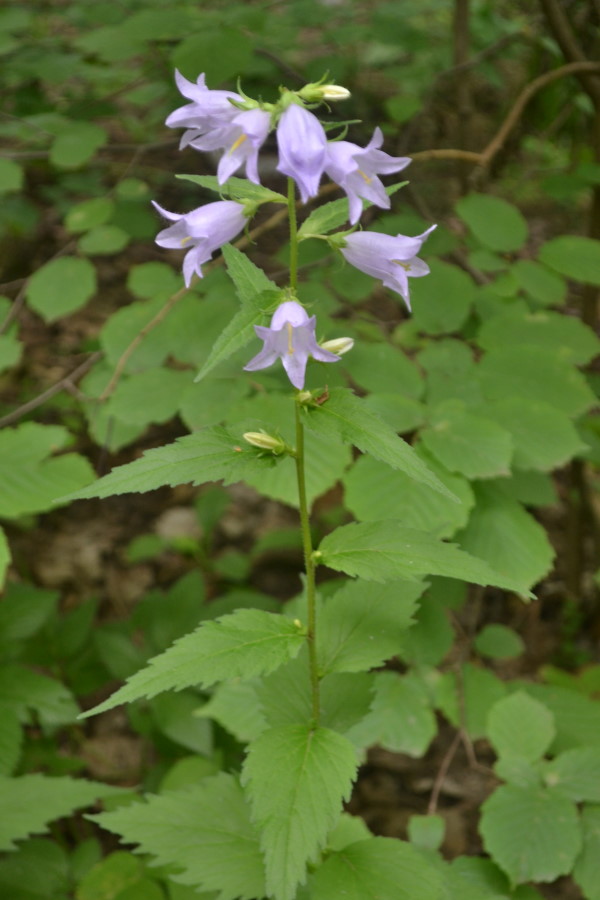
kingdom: Plantae
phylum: Tracheophyta
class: Magnoliopsida
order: Asterales
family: Campanulaceae
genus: Campanula
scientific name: Campanula
